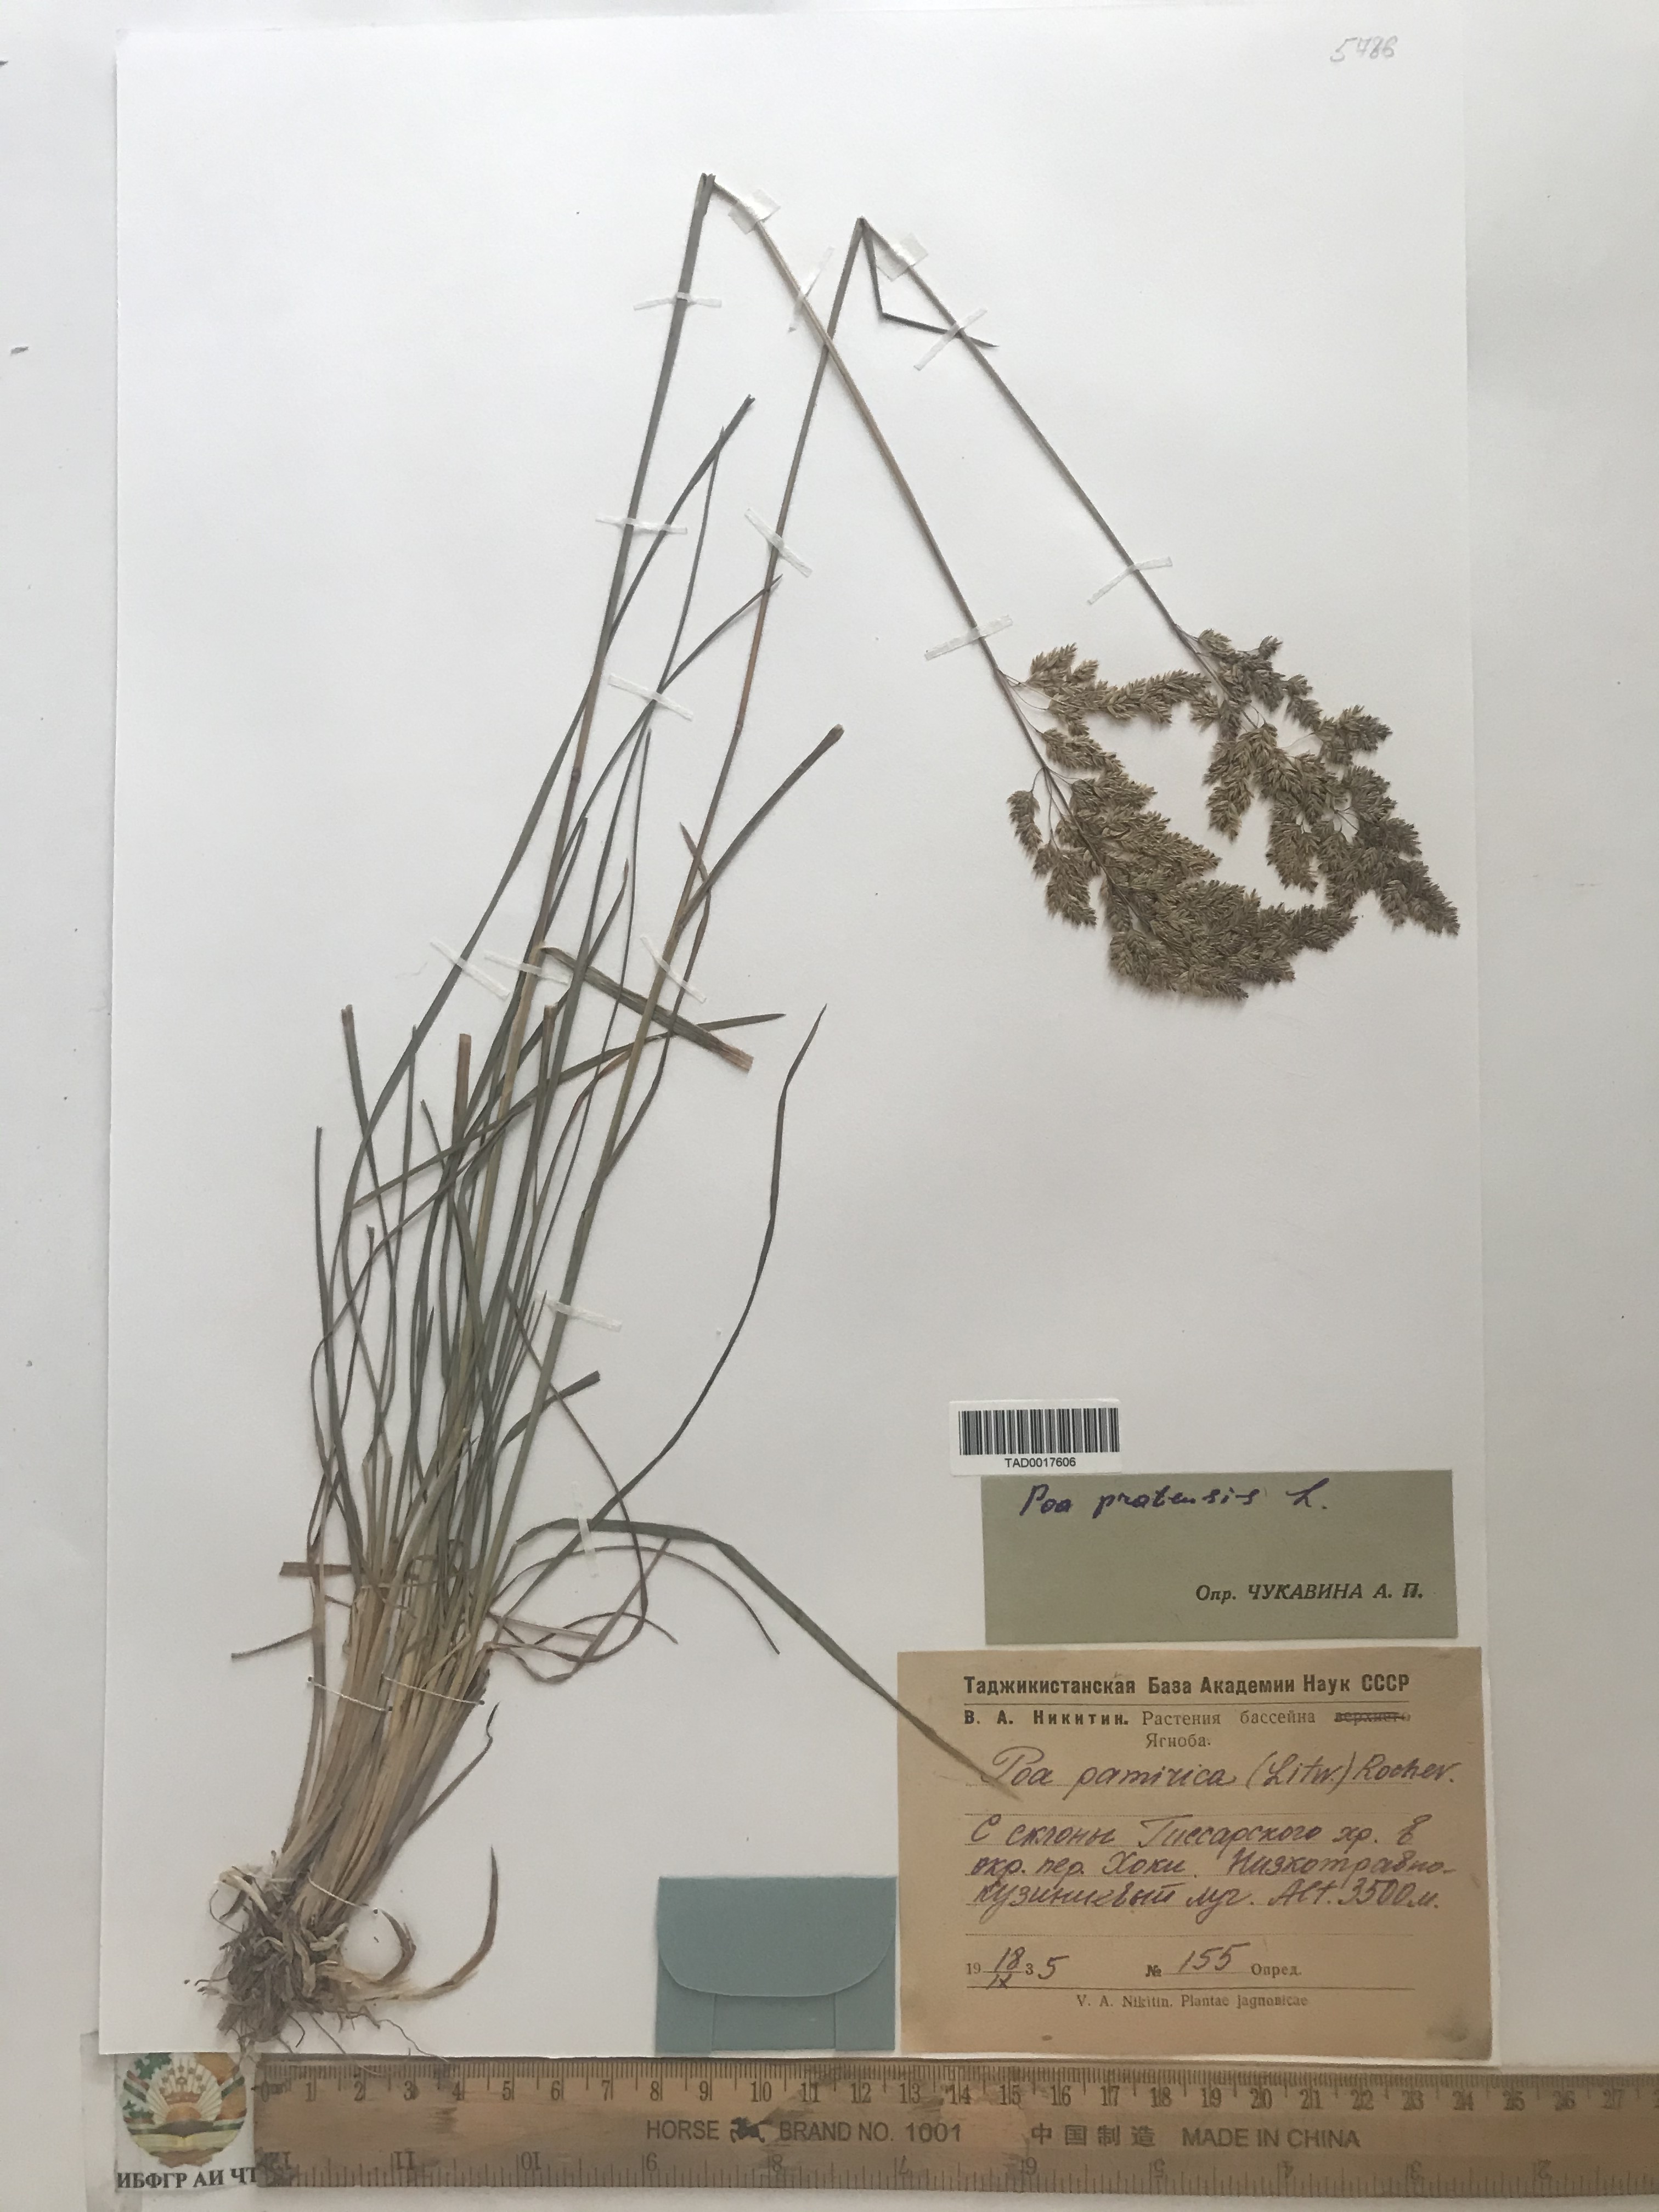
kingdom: Plantae
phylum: Tracheophyta
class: Liliopsida
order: Poales
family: Poaceae
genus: Poa
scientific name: Poa pratensis
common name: Kentucky bluegrass
